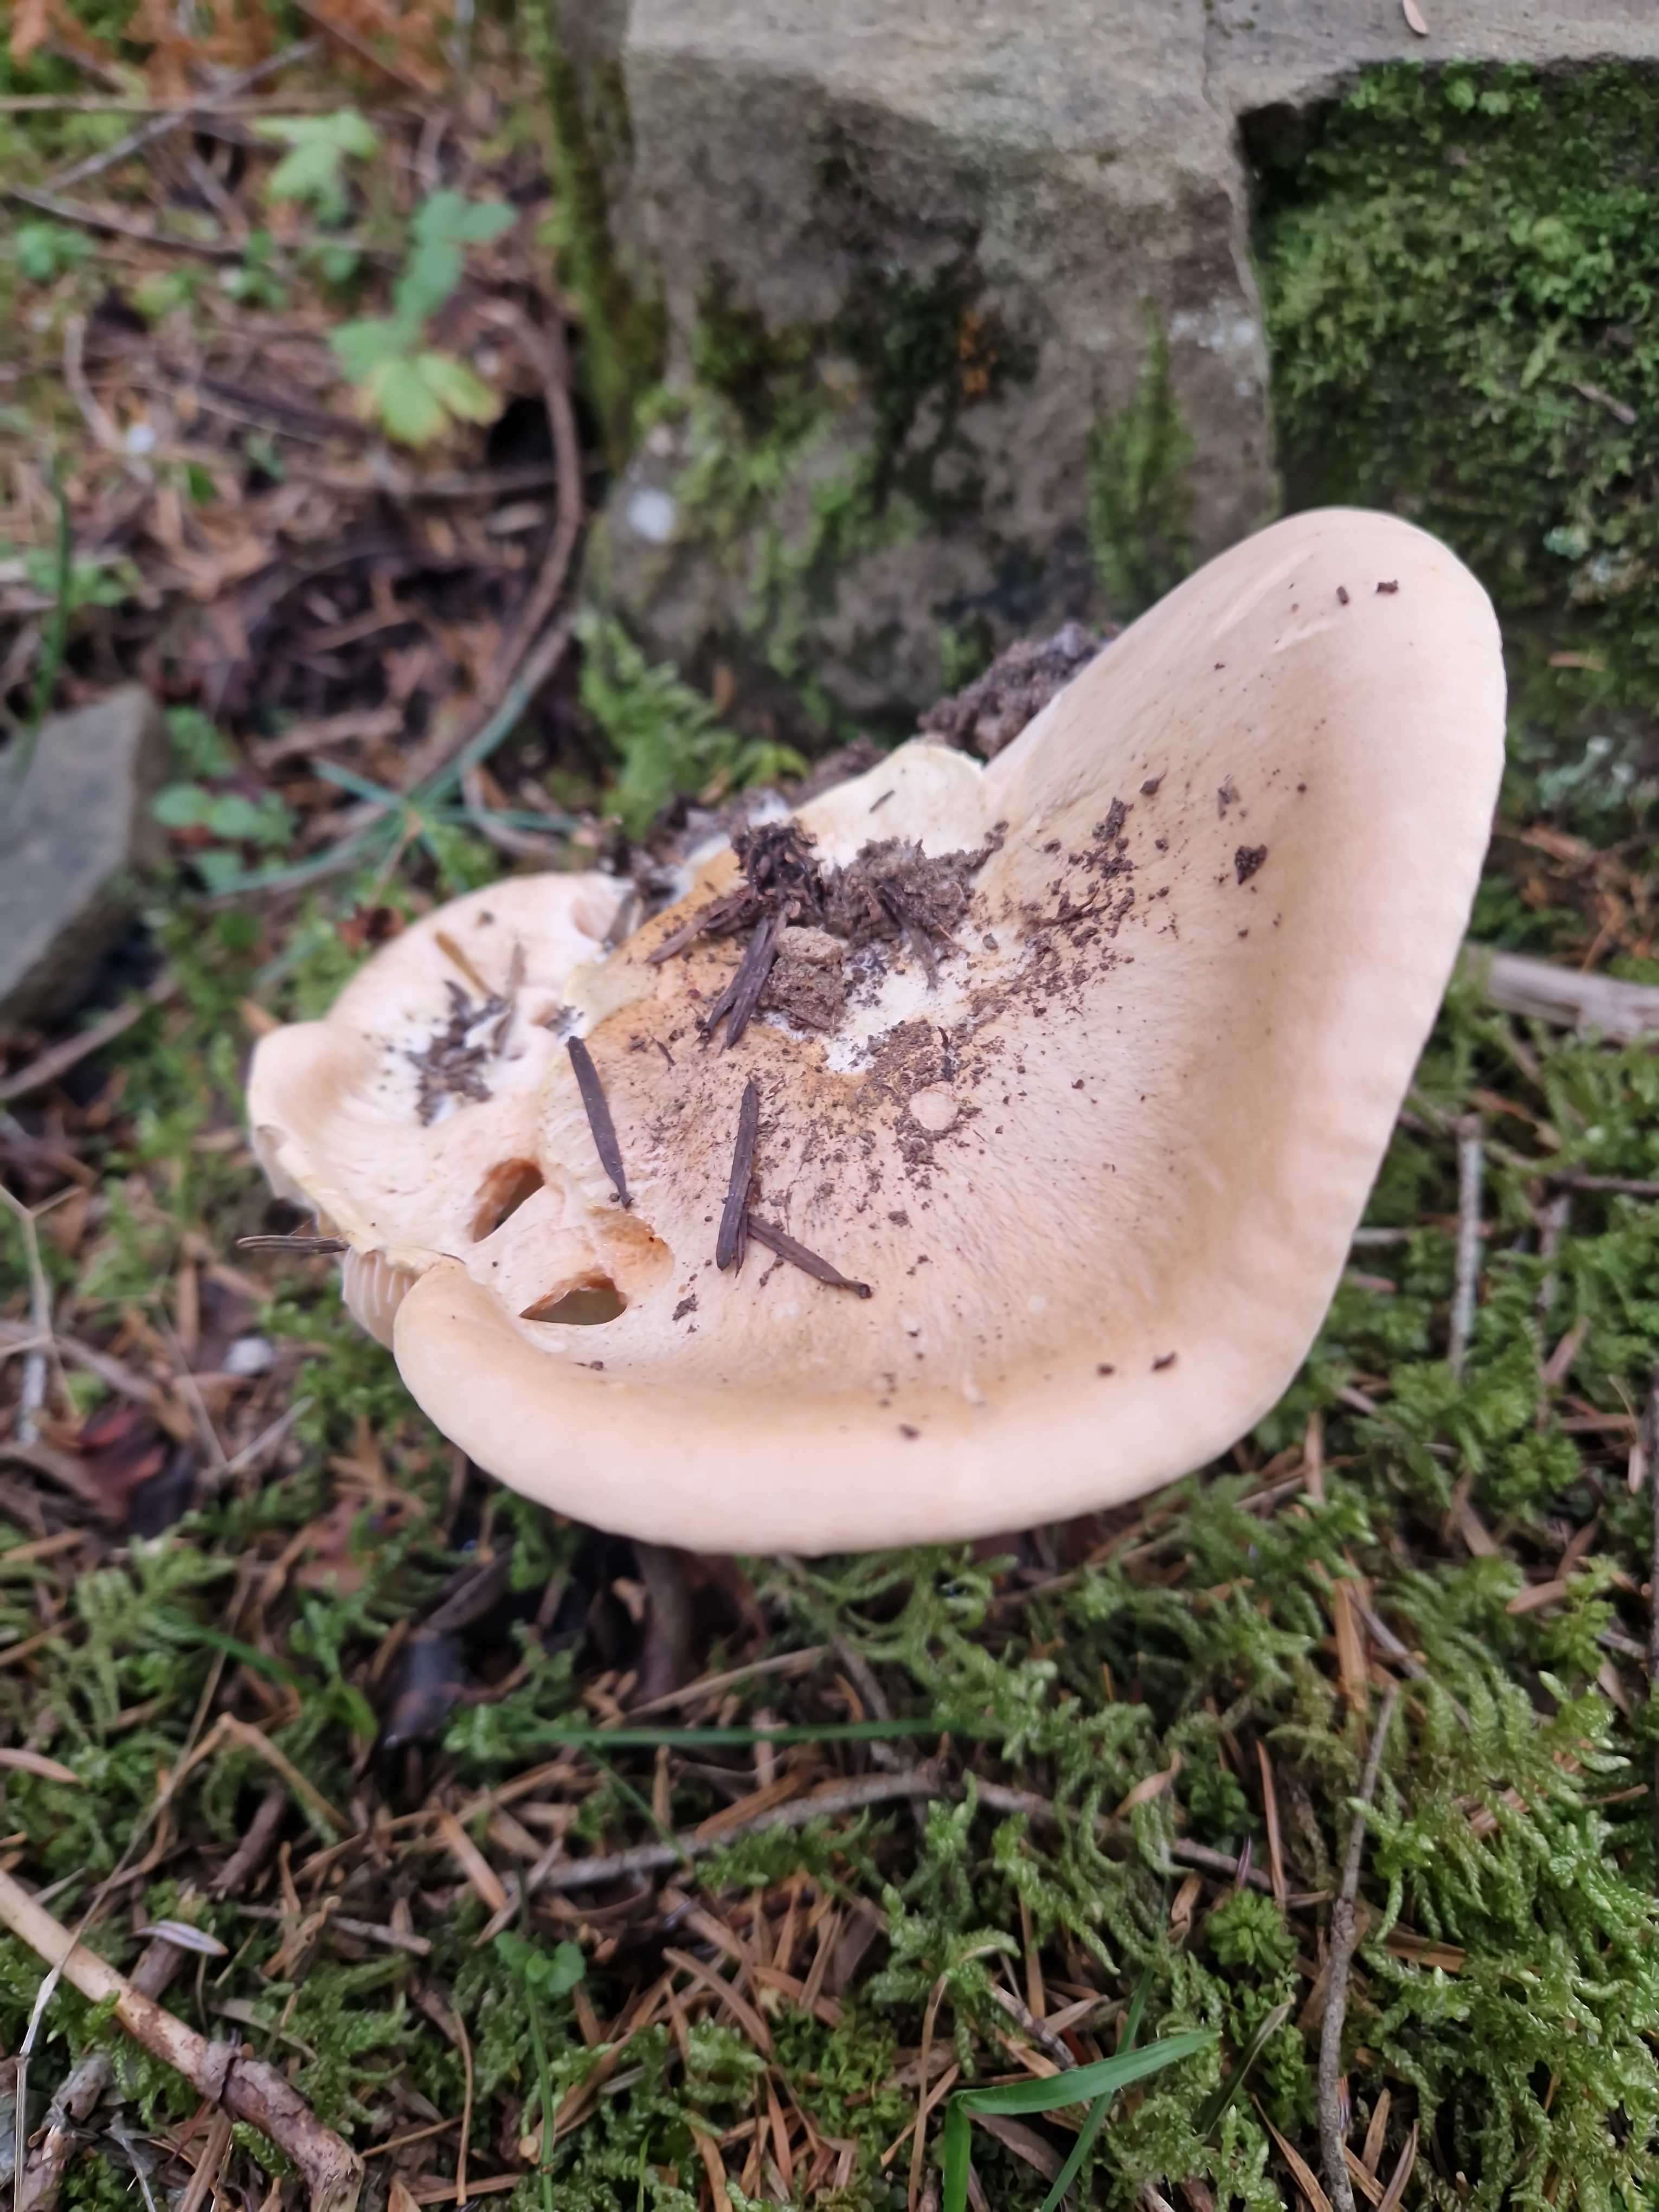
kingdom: Fungi
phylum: Basidiomycota
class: Agaricomycetes
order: Agaricales
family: Hygrophoraceae
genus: Hygrophorus
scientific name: Hygrophorus pudorinus
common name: Rosy woodwax
